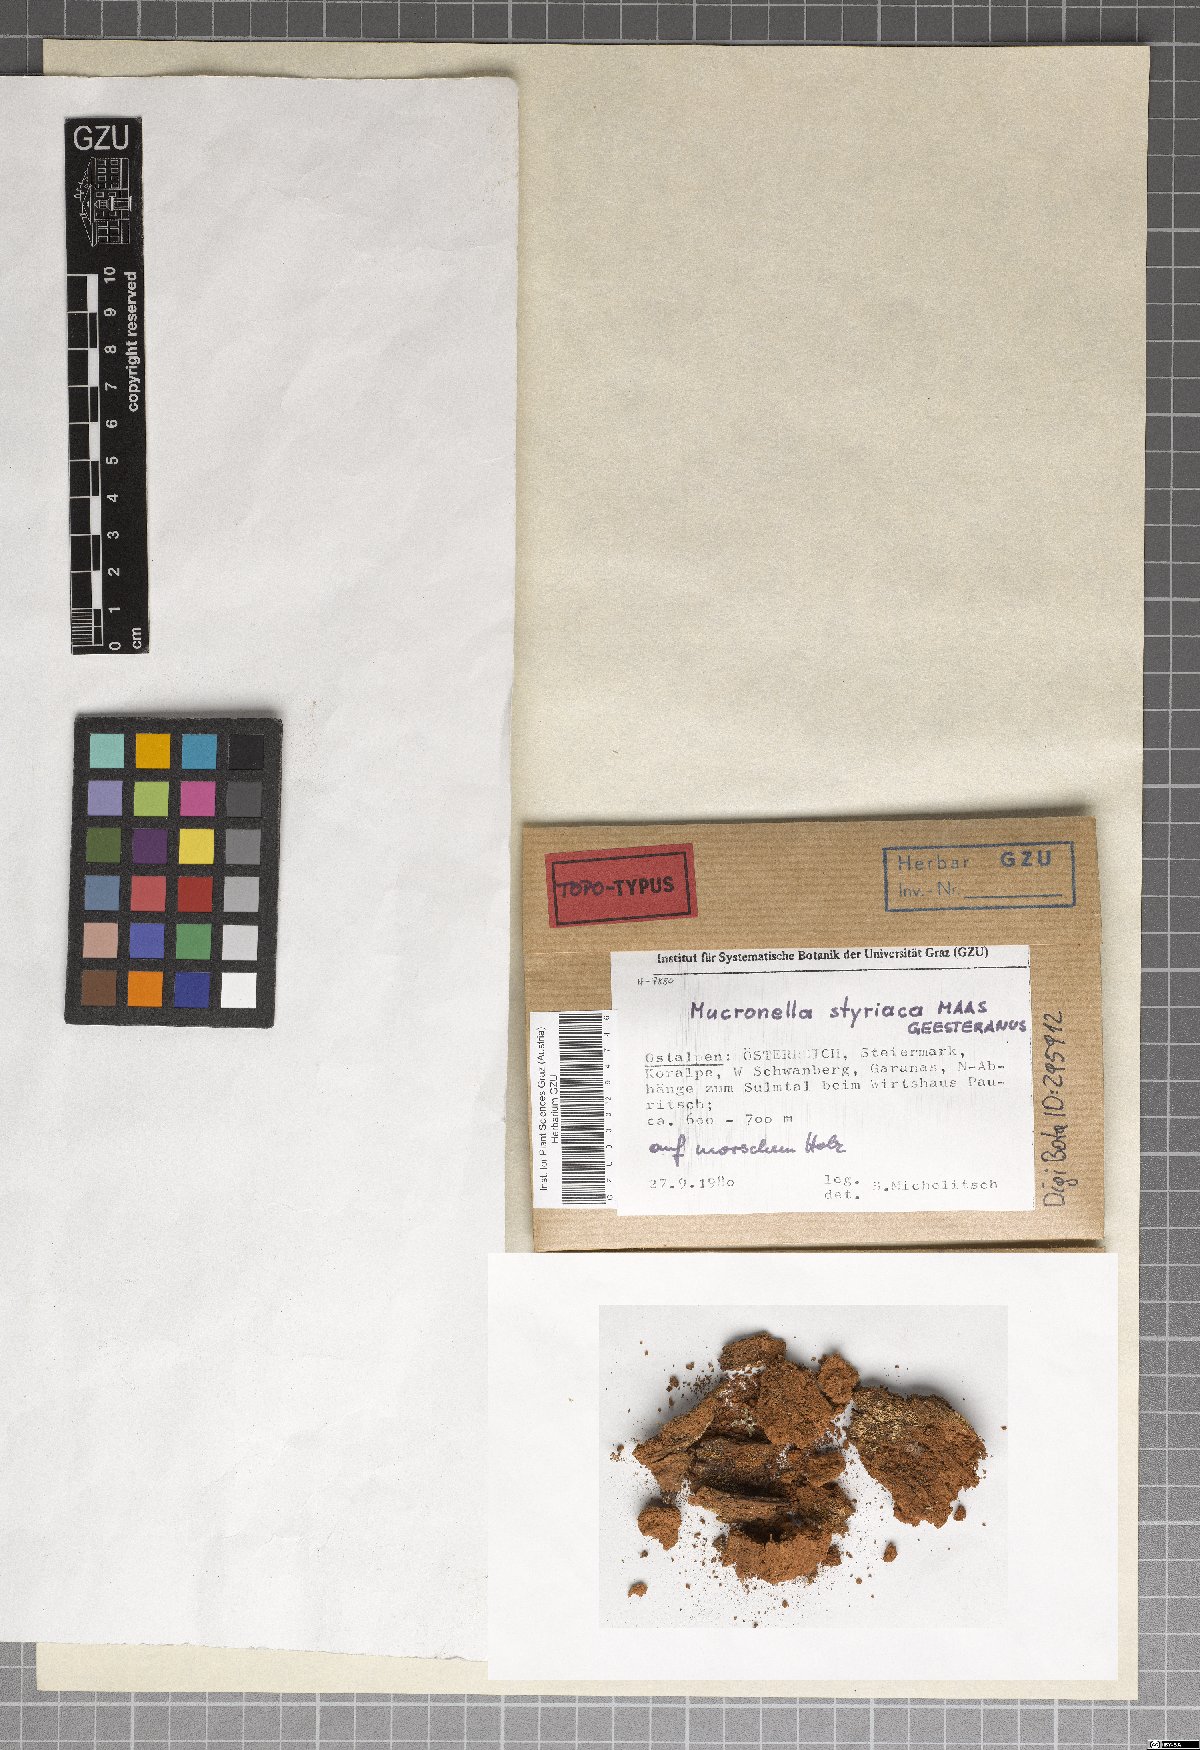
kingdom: Fungi
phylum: Basidiomycota
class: Agaricomycetes
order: Agaricales
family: Clavariaceae
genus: Mucronella
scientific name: Mucronella styriaca
